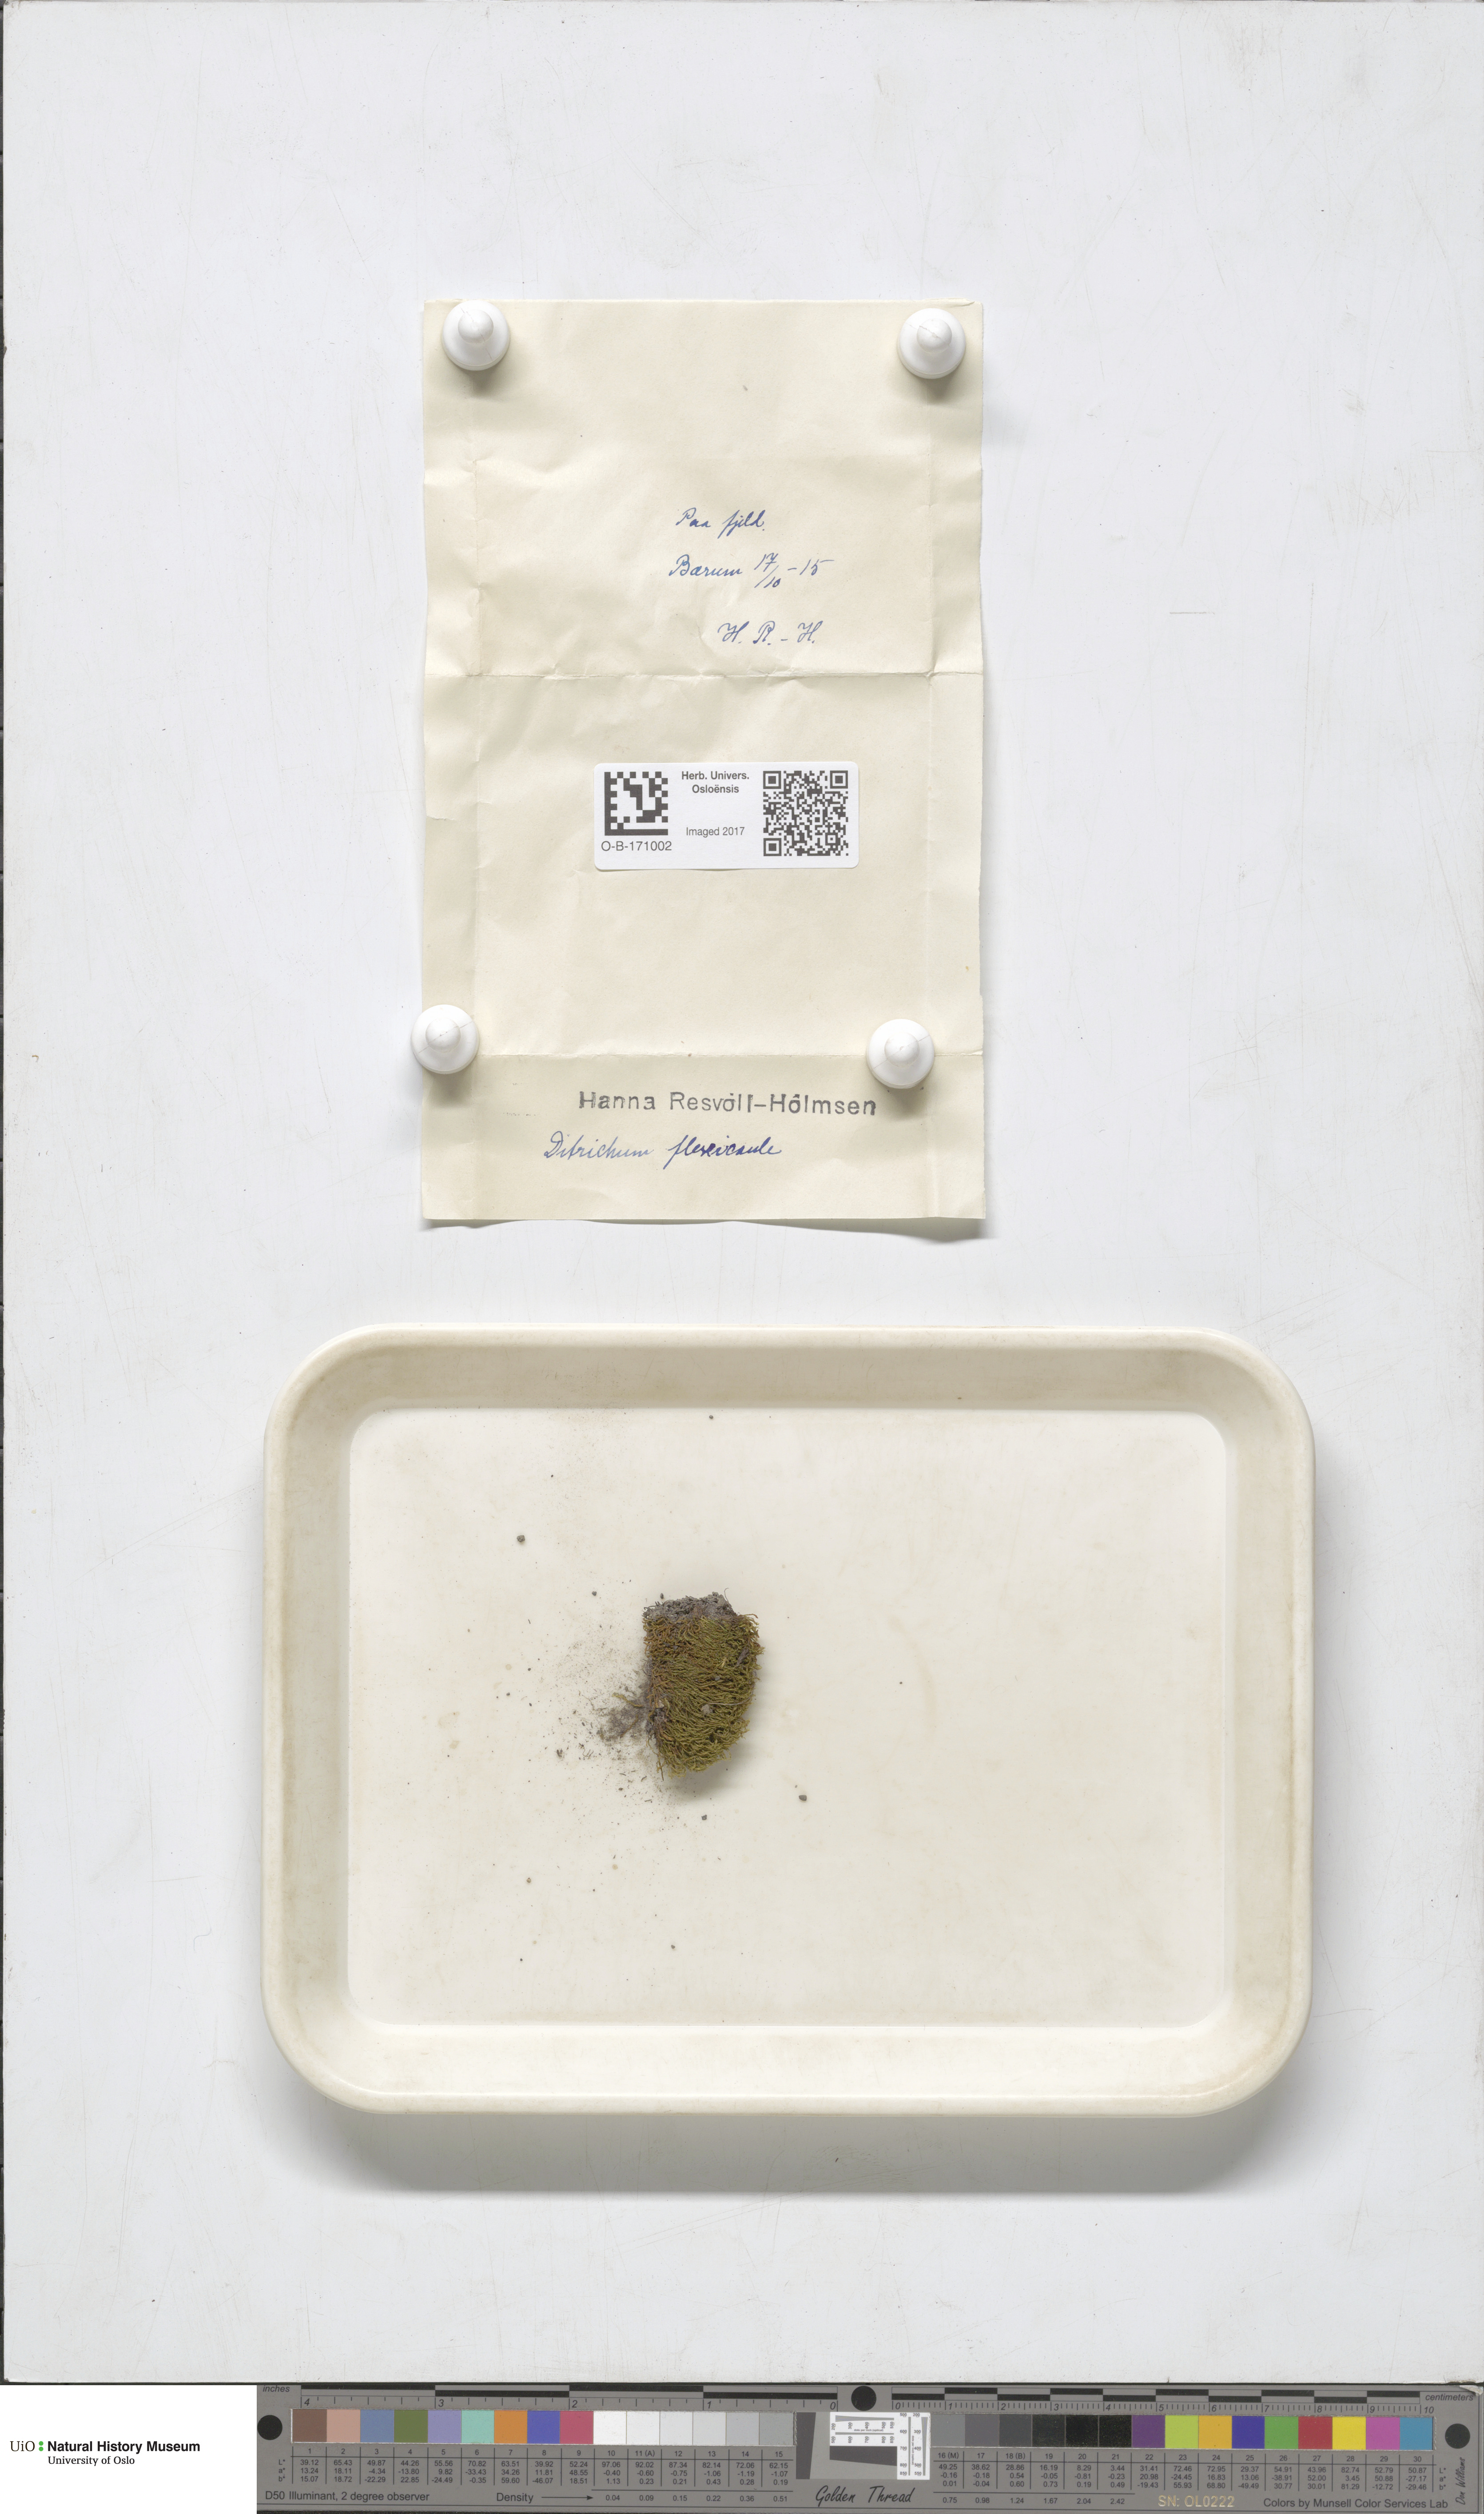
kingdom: Plantae
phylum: Bryophyta
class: Bryopsida
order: Scouleriales
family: Flexitrichaceae
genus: Flexitrichum
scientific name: Flexitrichum flexicaule
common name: Bendy ditrichum
